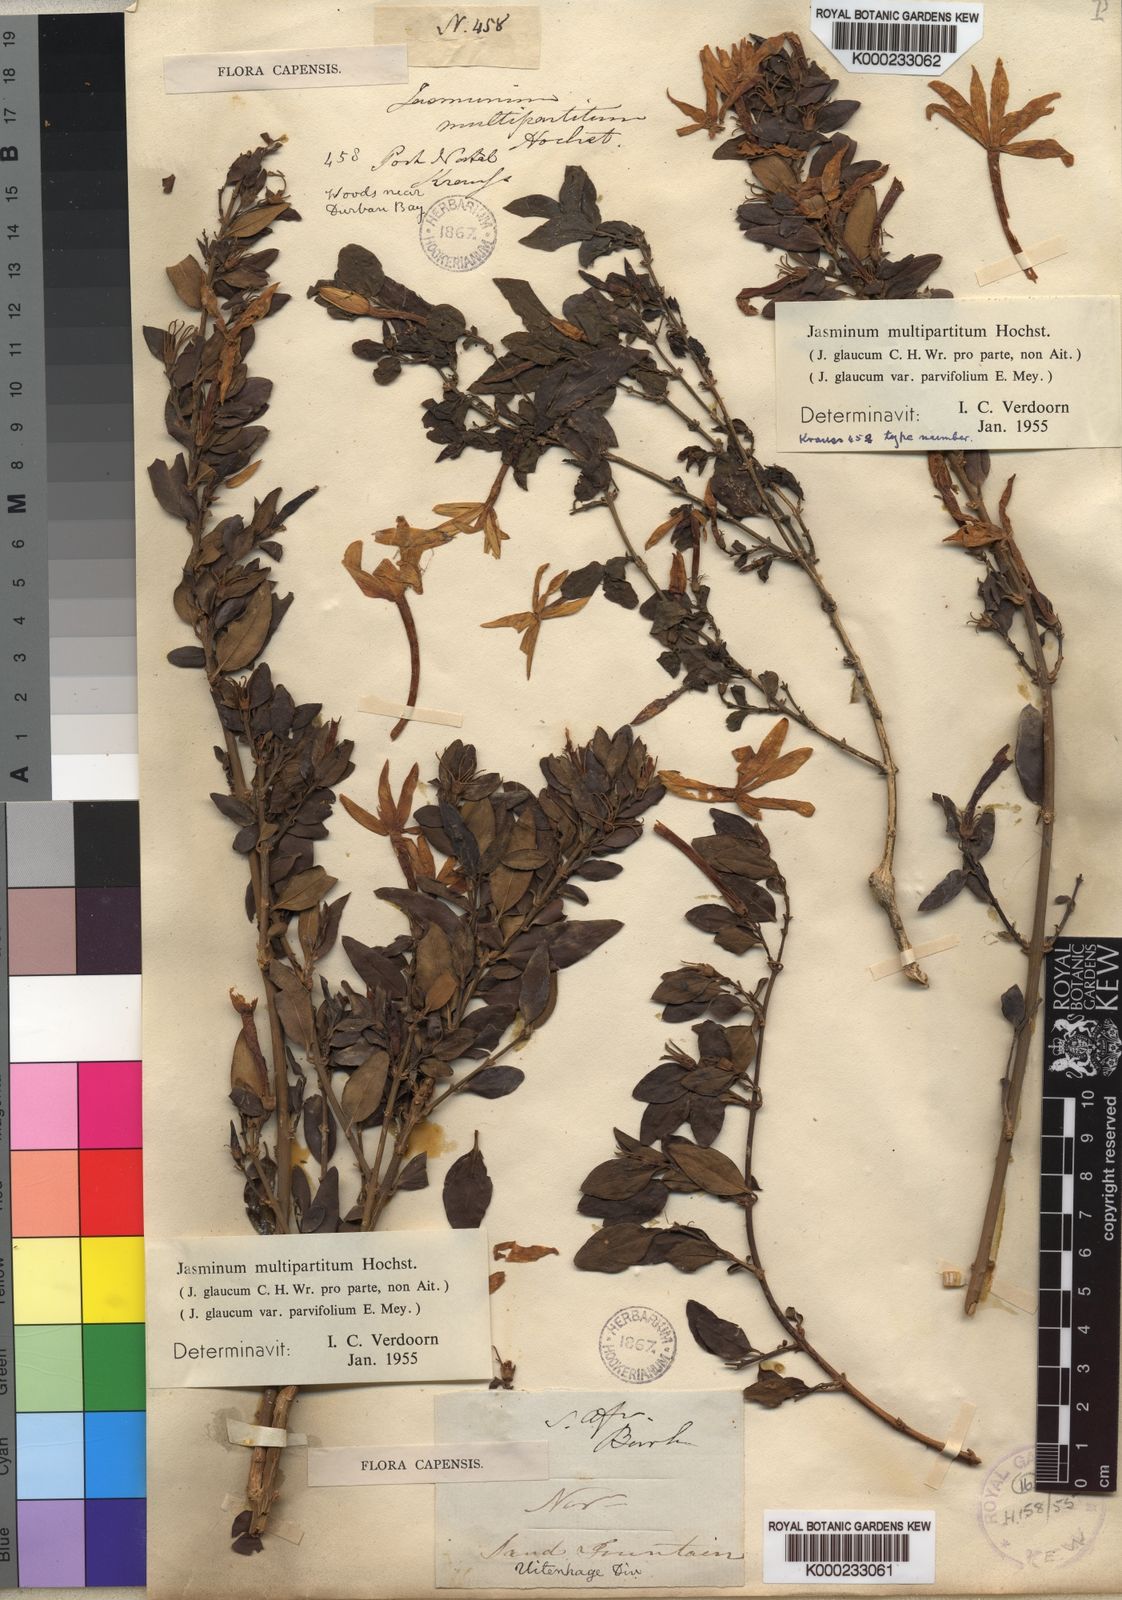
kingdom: Plantae
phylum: Tracheophyta
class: Magnoliopsida
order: Lamiales
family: Oleaceae
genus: Jasminum
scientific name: Jasminum multipartitum
